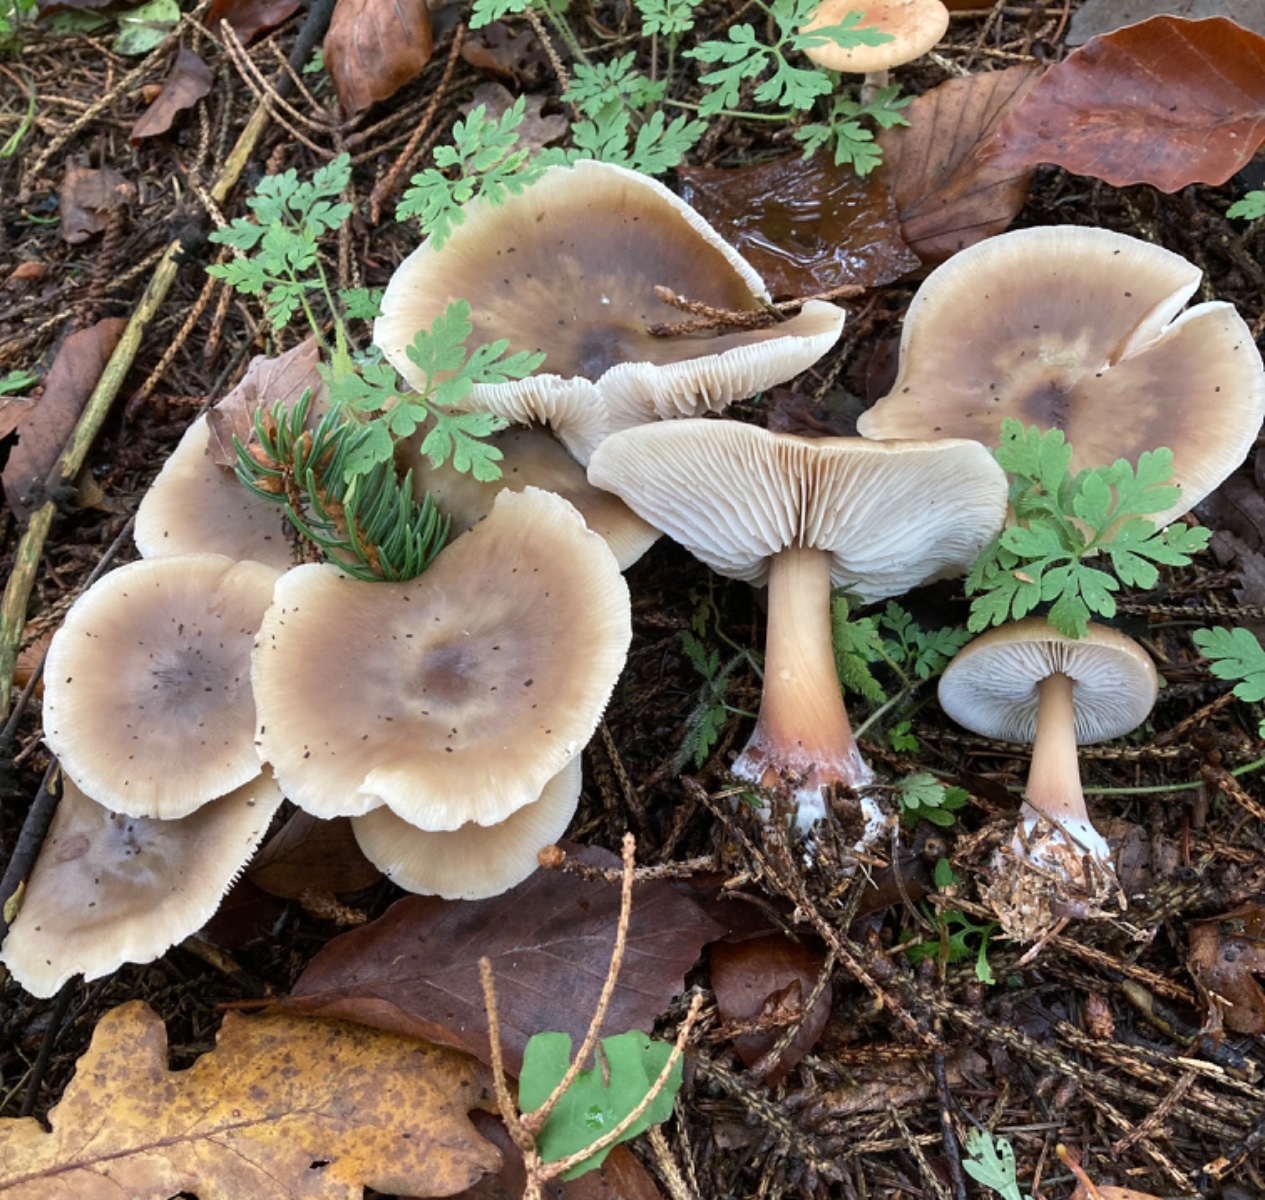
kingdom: Fungi
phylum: Basidiomycota
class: Agaricomycetes
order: Agaricales
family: Omphalotaceae
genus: Rhodocollybia
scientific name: Rhodocollybia asema
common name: horngrå fladhat
